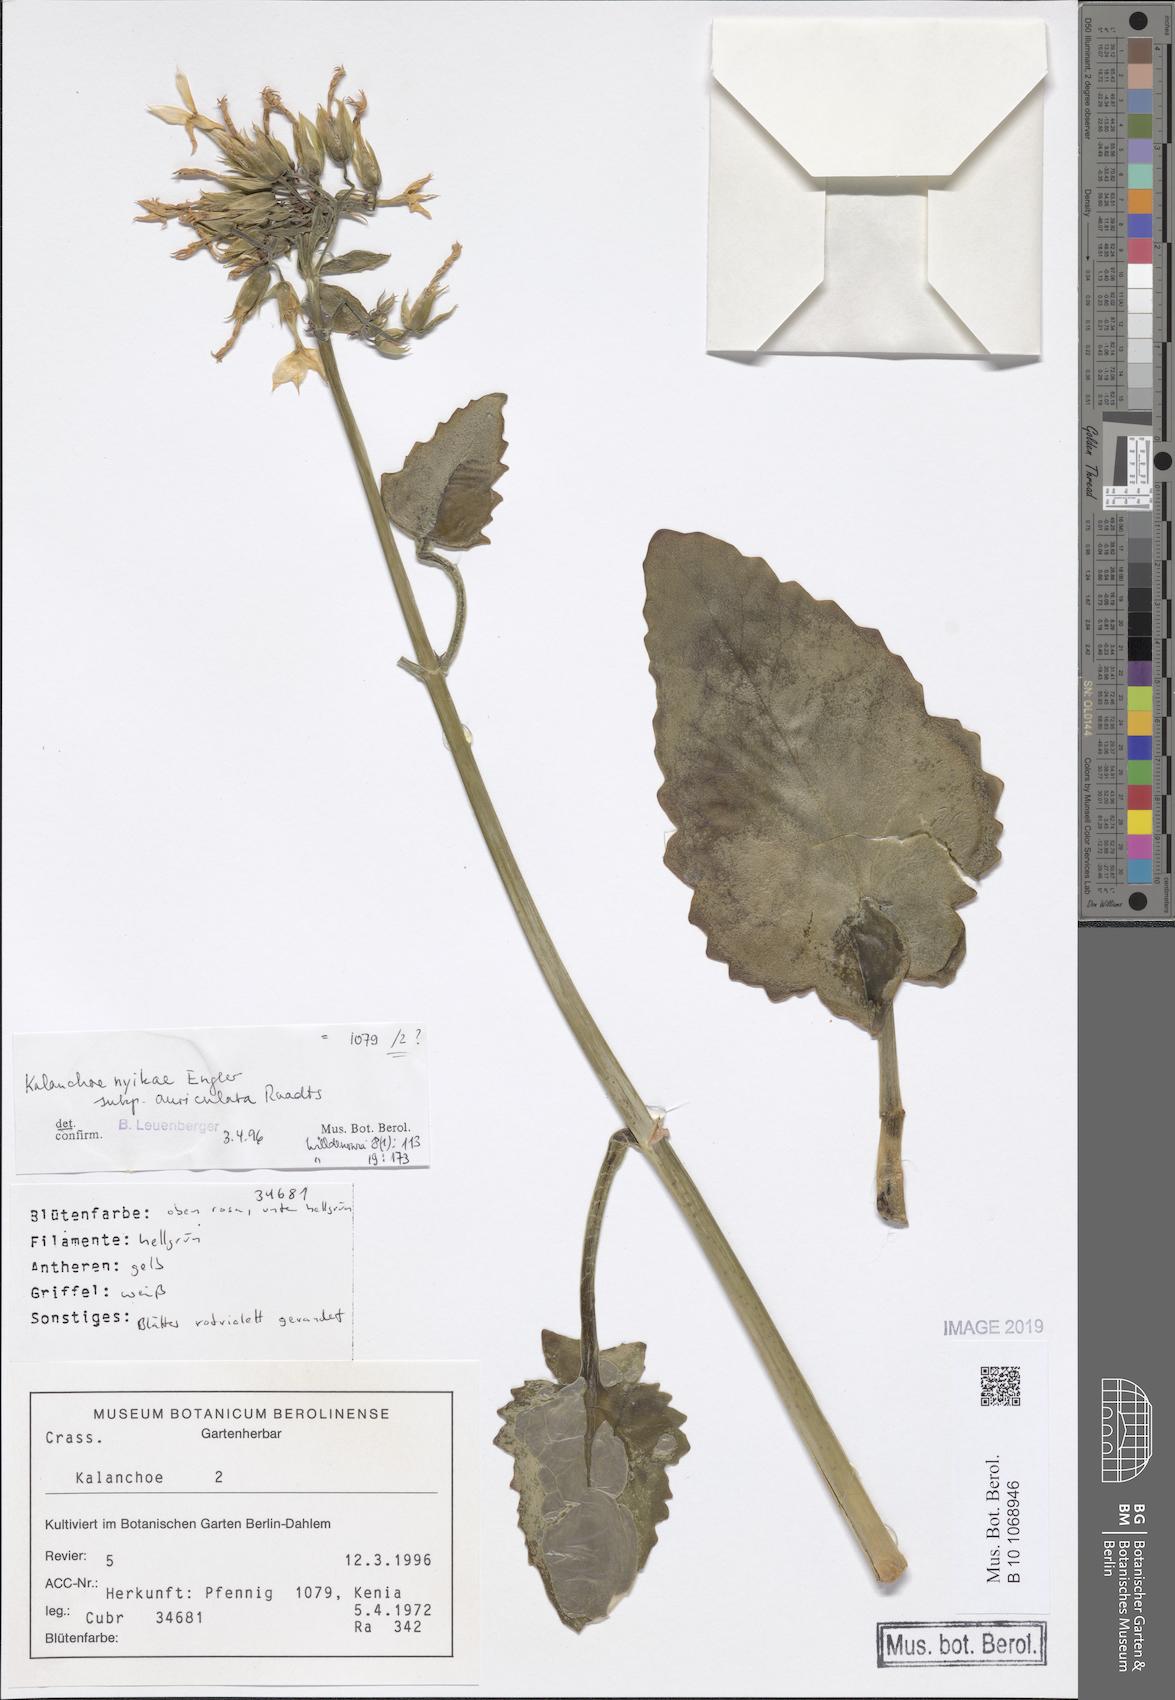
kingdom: Plantae
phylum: Tracheophyta
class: Magnoliopsida
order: Saxifragales
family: Crassulaceae
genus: Kalanchoe
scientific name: Kalanchoe auriculata
